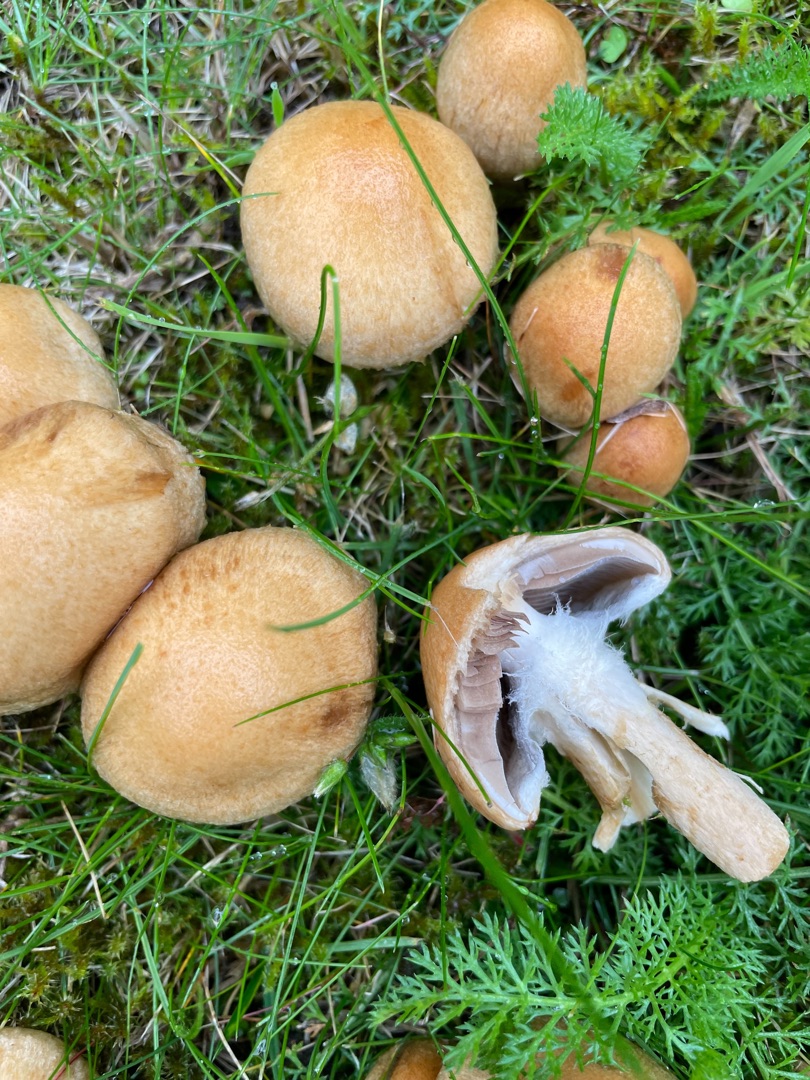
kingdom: Fungi
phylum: Basidiomycota
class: Agaricomycetes
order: Agaricales
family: Psathyrellaceae
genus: Lacrymaria
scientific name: Lacrymaria lacrymabunda
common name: Grædende mørkhat
